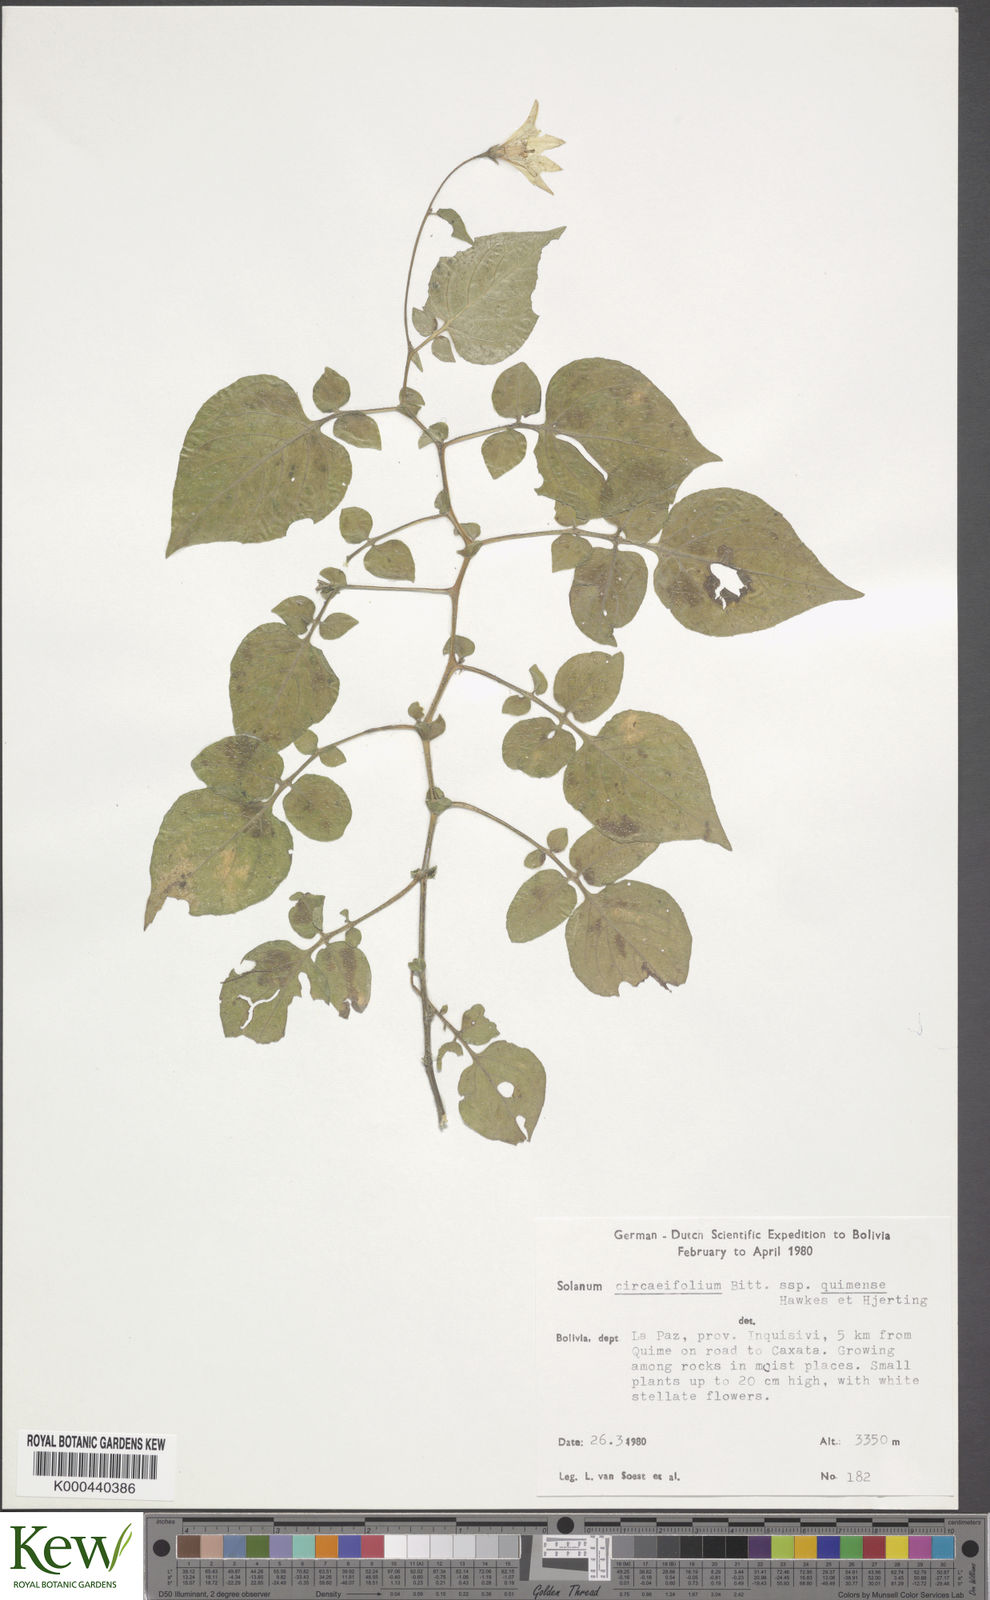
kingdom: Plantae
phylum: Tracheophyta
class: Magnoliopsida
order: Solanales
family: Solanaceae
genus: Solanum
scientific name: Solanum stipuloideum
